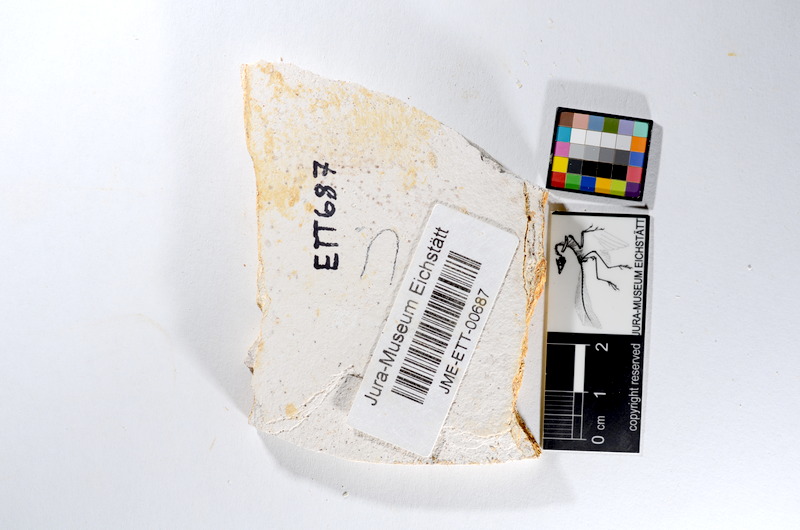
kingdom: Animalia
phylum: Chordata
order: Salmoniformes
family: Orthogonikleithridae
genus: Orthogonikleithrus
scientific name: Orthogonikleithrus hoelli
